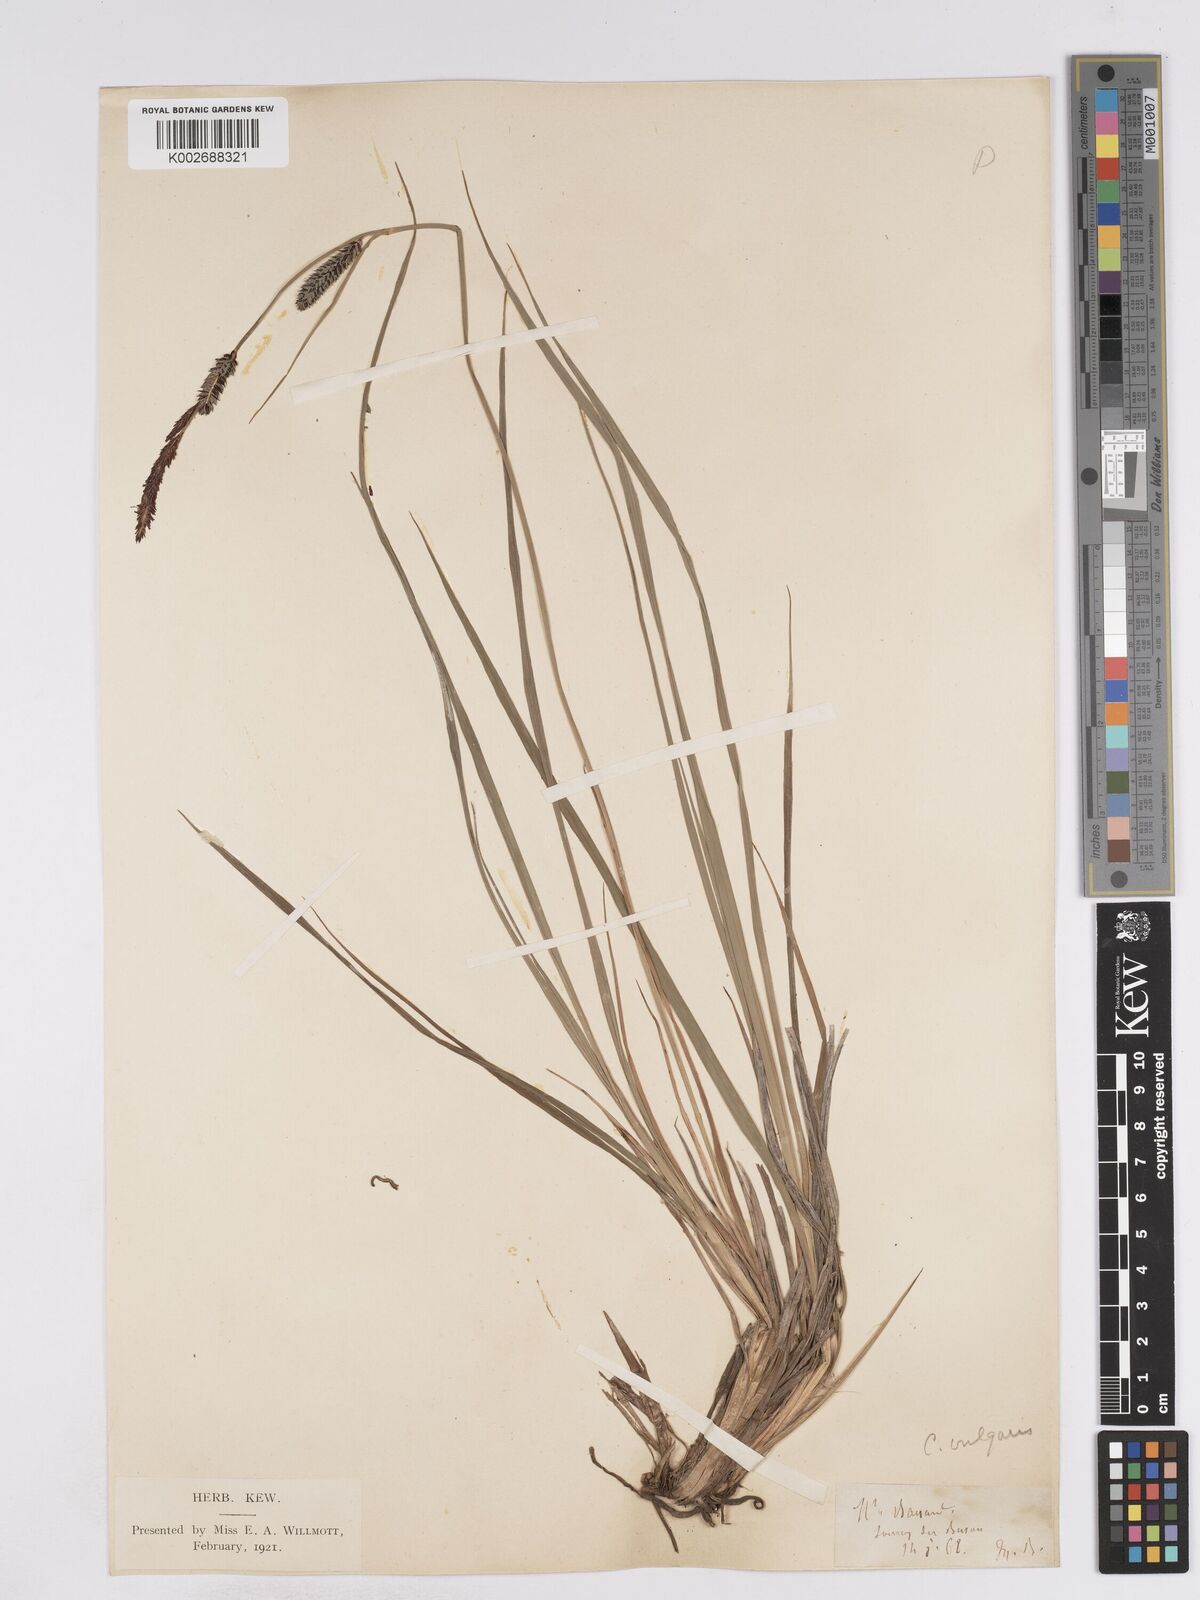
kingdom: Plantae
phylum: Tracheophyta
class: Liliopsida
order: Poales
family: Cyperaceae
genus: Carex
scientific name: Carex elata
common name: Tufted sedge
